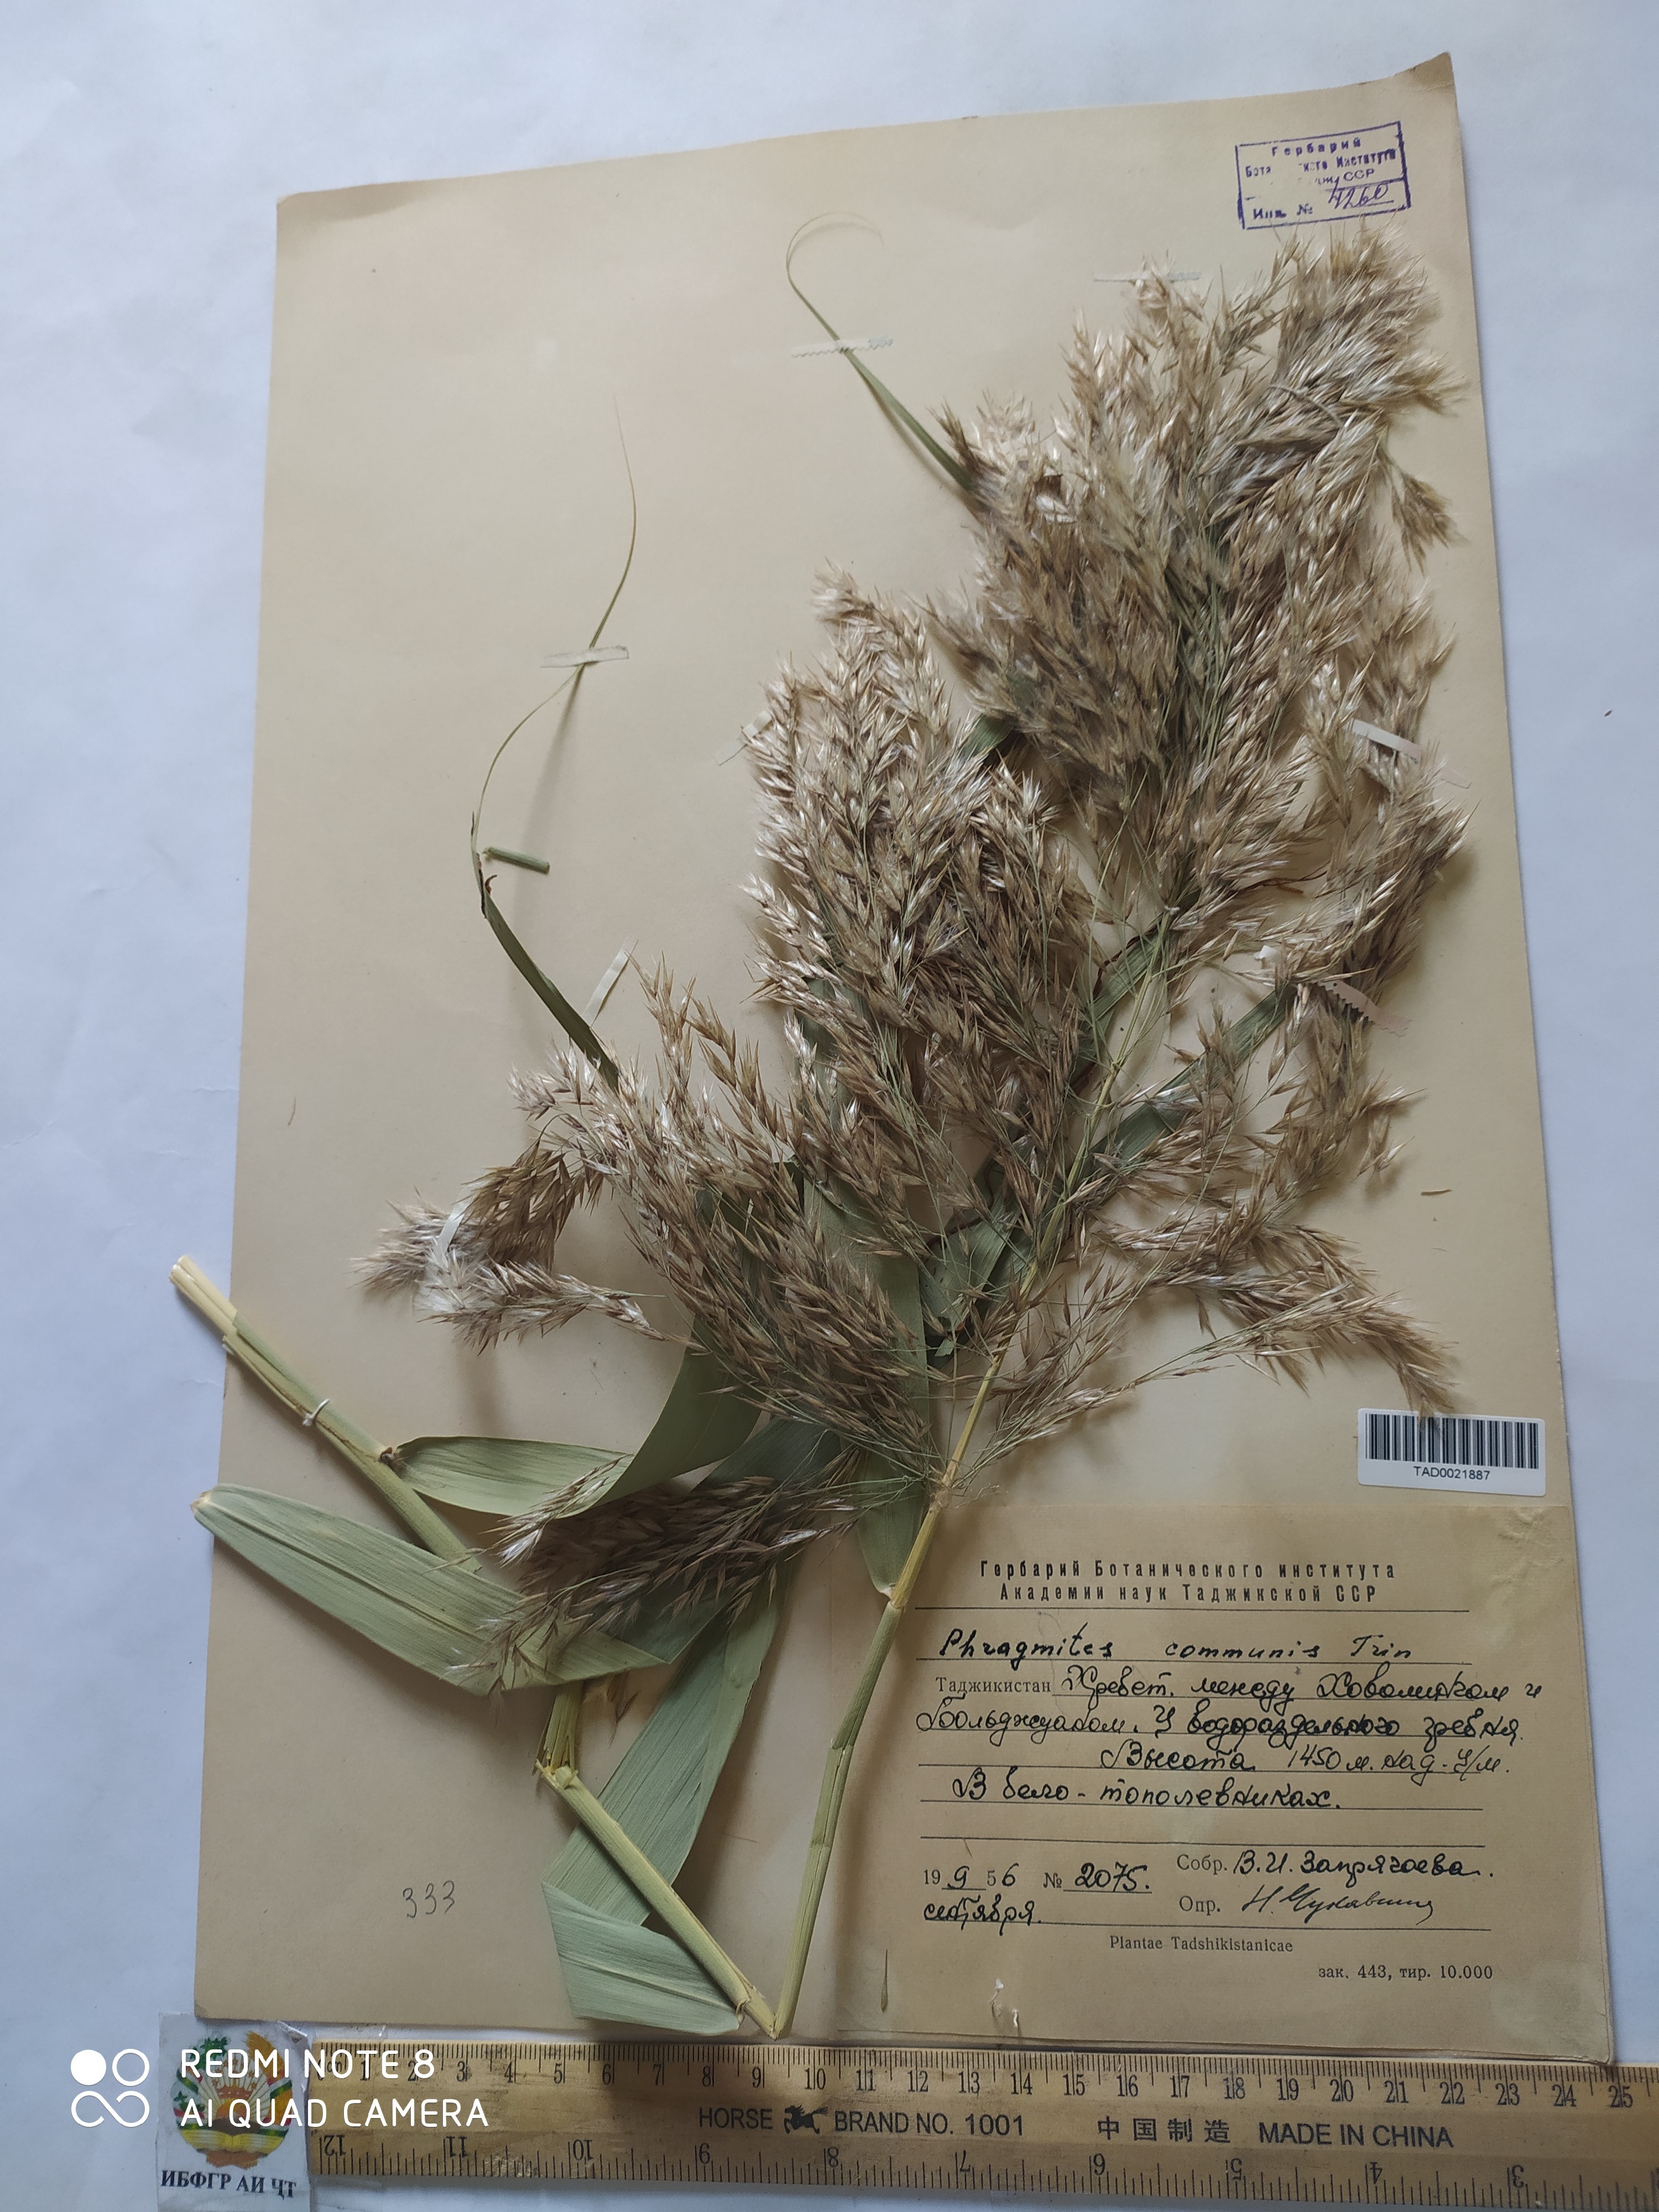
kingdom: Plantae
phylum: Tracheophyta
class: Liliopsida
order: Poales
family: Poaceae
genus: Phragmites
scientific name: Phragmites australis
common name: Common reed
